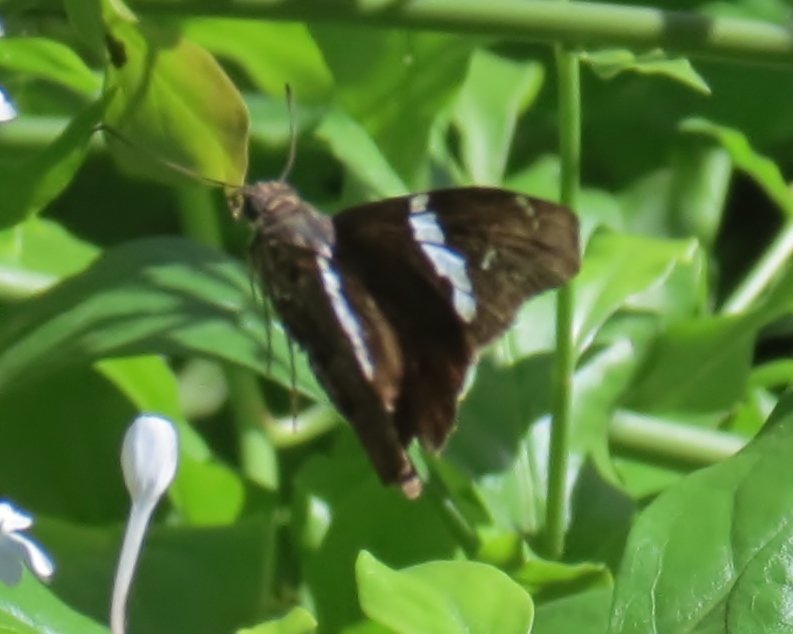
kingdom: Animalia
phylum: Arthropoda
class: Insecta
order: Lepidoptera
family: Hesperiidae
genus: Spathilepia
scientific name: Spathilepia clonius
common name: Falcate Skipper
